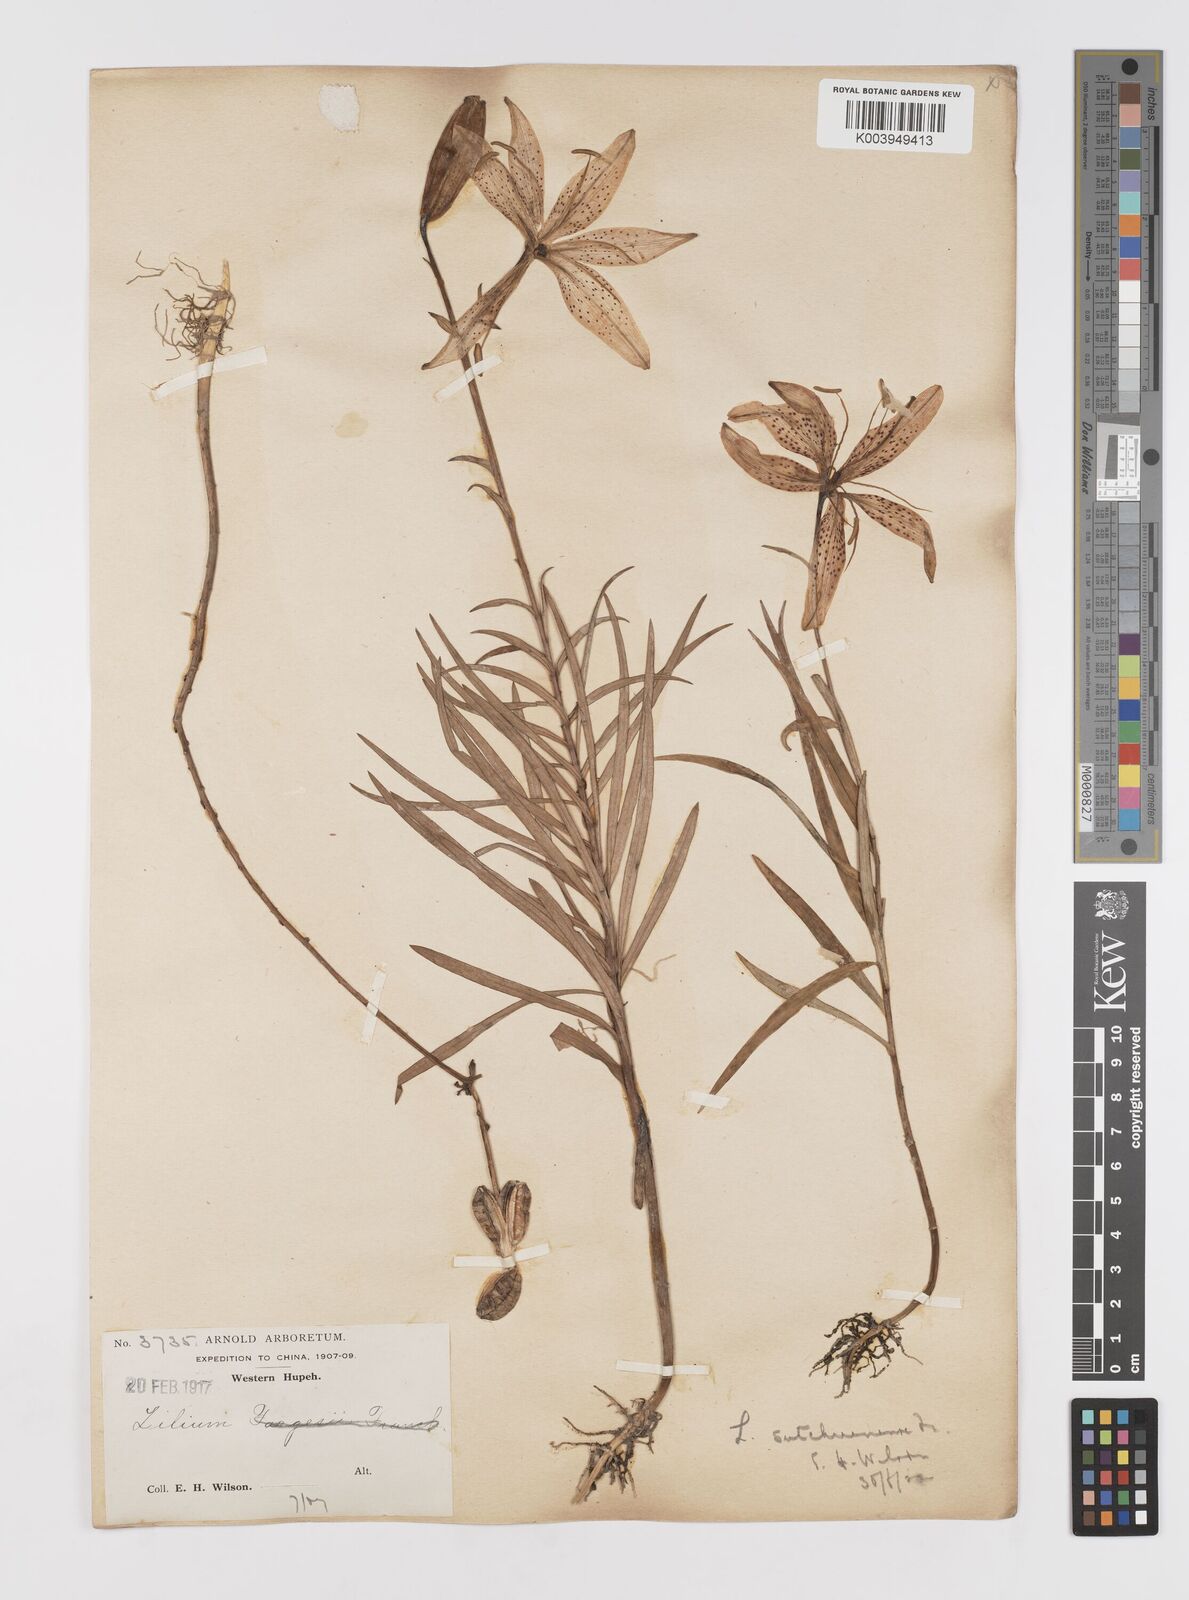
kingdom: Plantae
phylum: Tracheophyta
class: Liliopsida
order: Liliales
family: Liliaceae
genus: Lilium
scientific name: Lilium davidii
